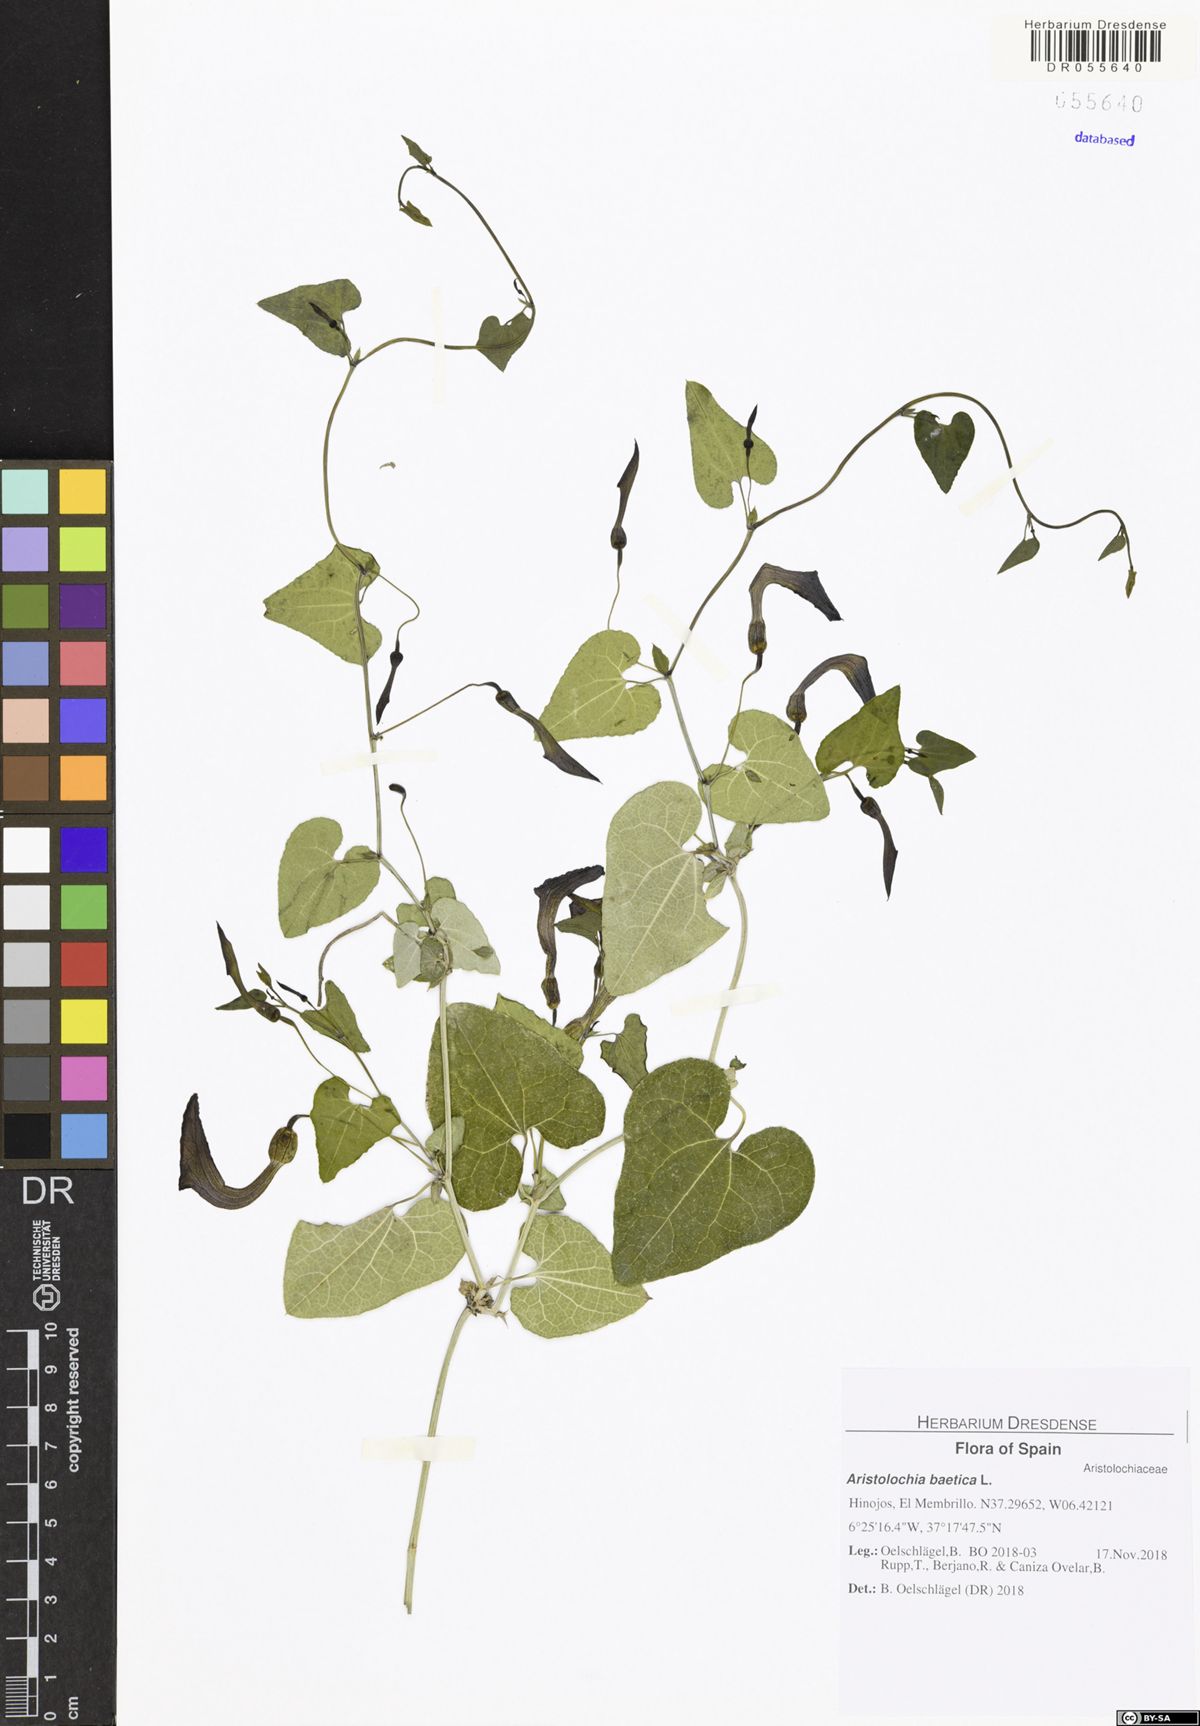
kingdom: Plantae
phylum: Tracheophyta
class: Magnoliopsida
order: Piperales
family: Aristolochiaceae
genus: Aristolochia
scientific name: Aristolochia baetica
